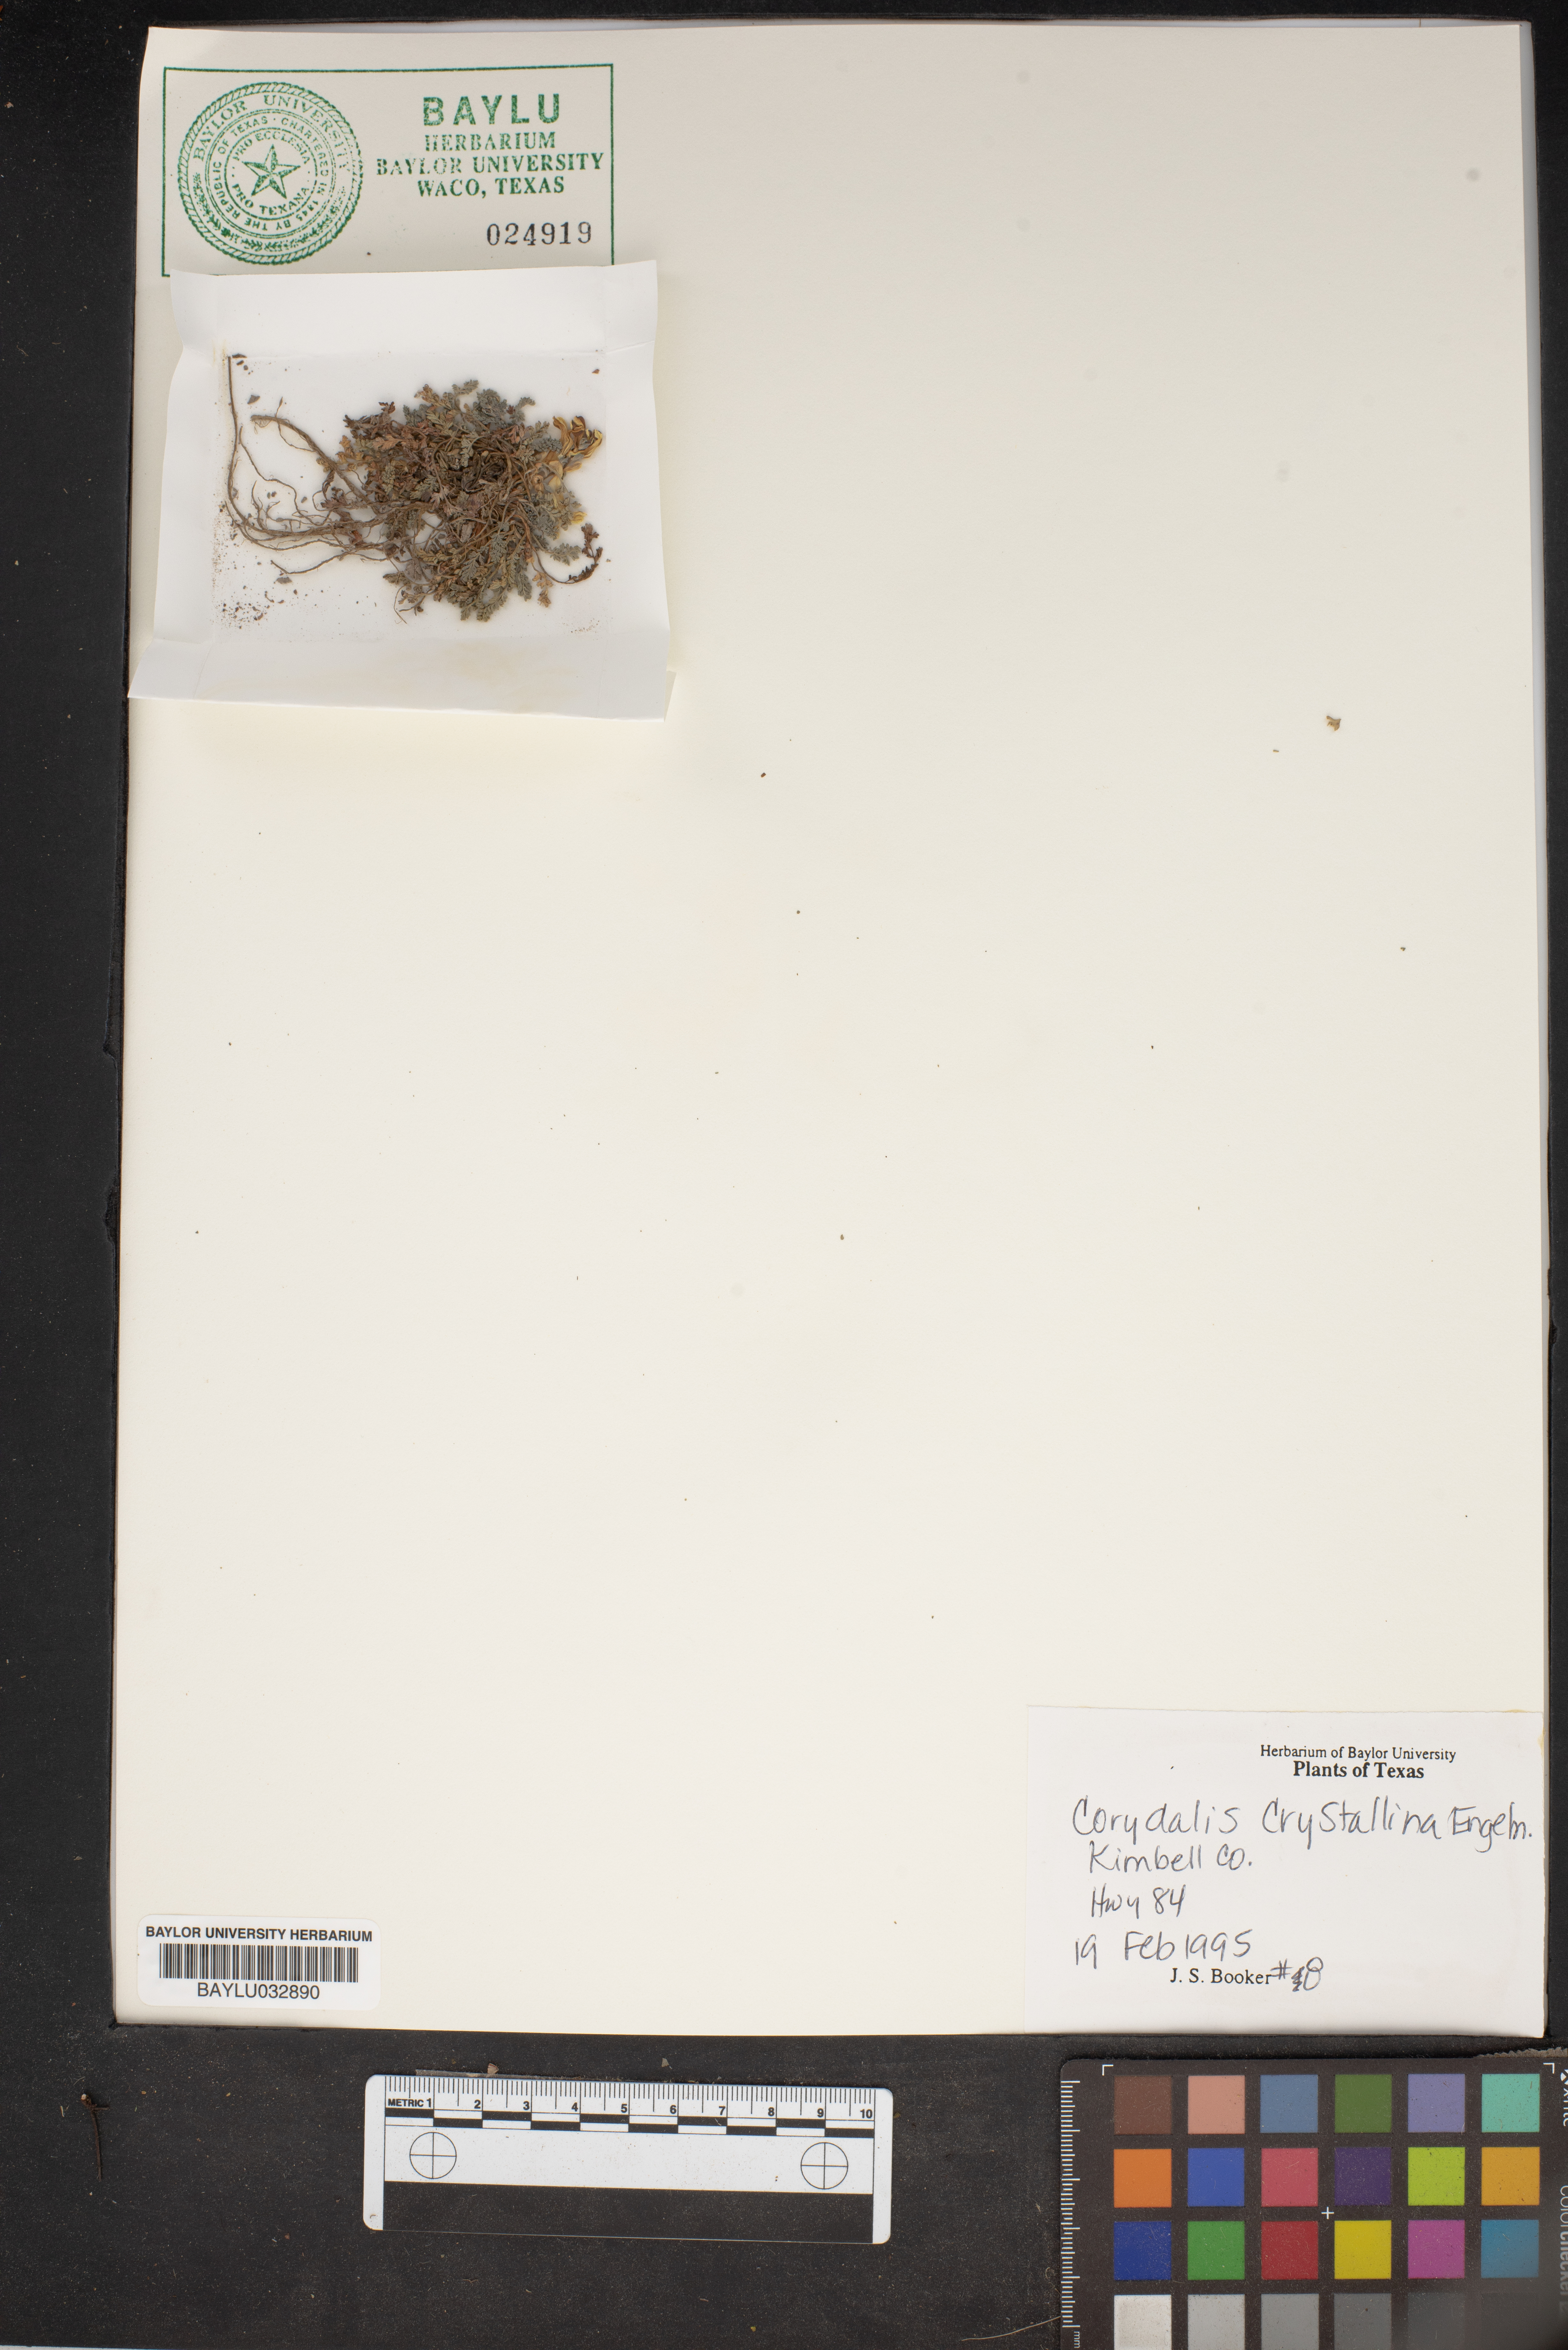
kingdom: Plantae
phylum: Tracheophyta
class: Magnoliopsida
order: Ranunculales
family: Papaveraceae
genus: Corydalis
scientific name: Corydalis crystallina
